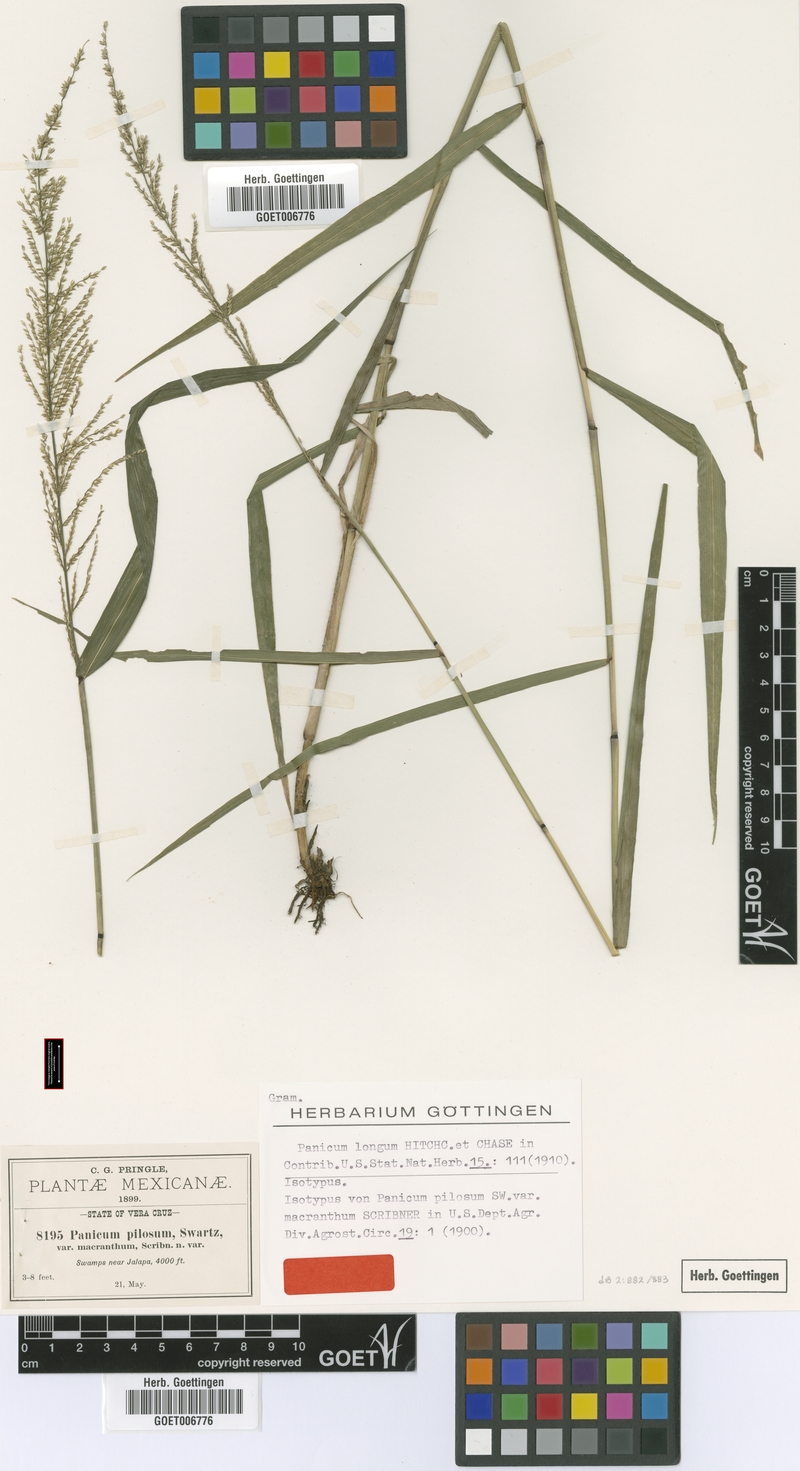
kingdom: Plantae
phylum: Tracheophyta
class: Liliopsida
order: Poales
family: Poaceae
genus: Hymenachne
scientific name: Hymenachne longa
